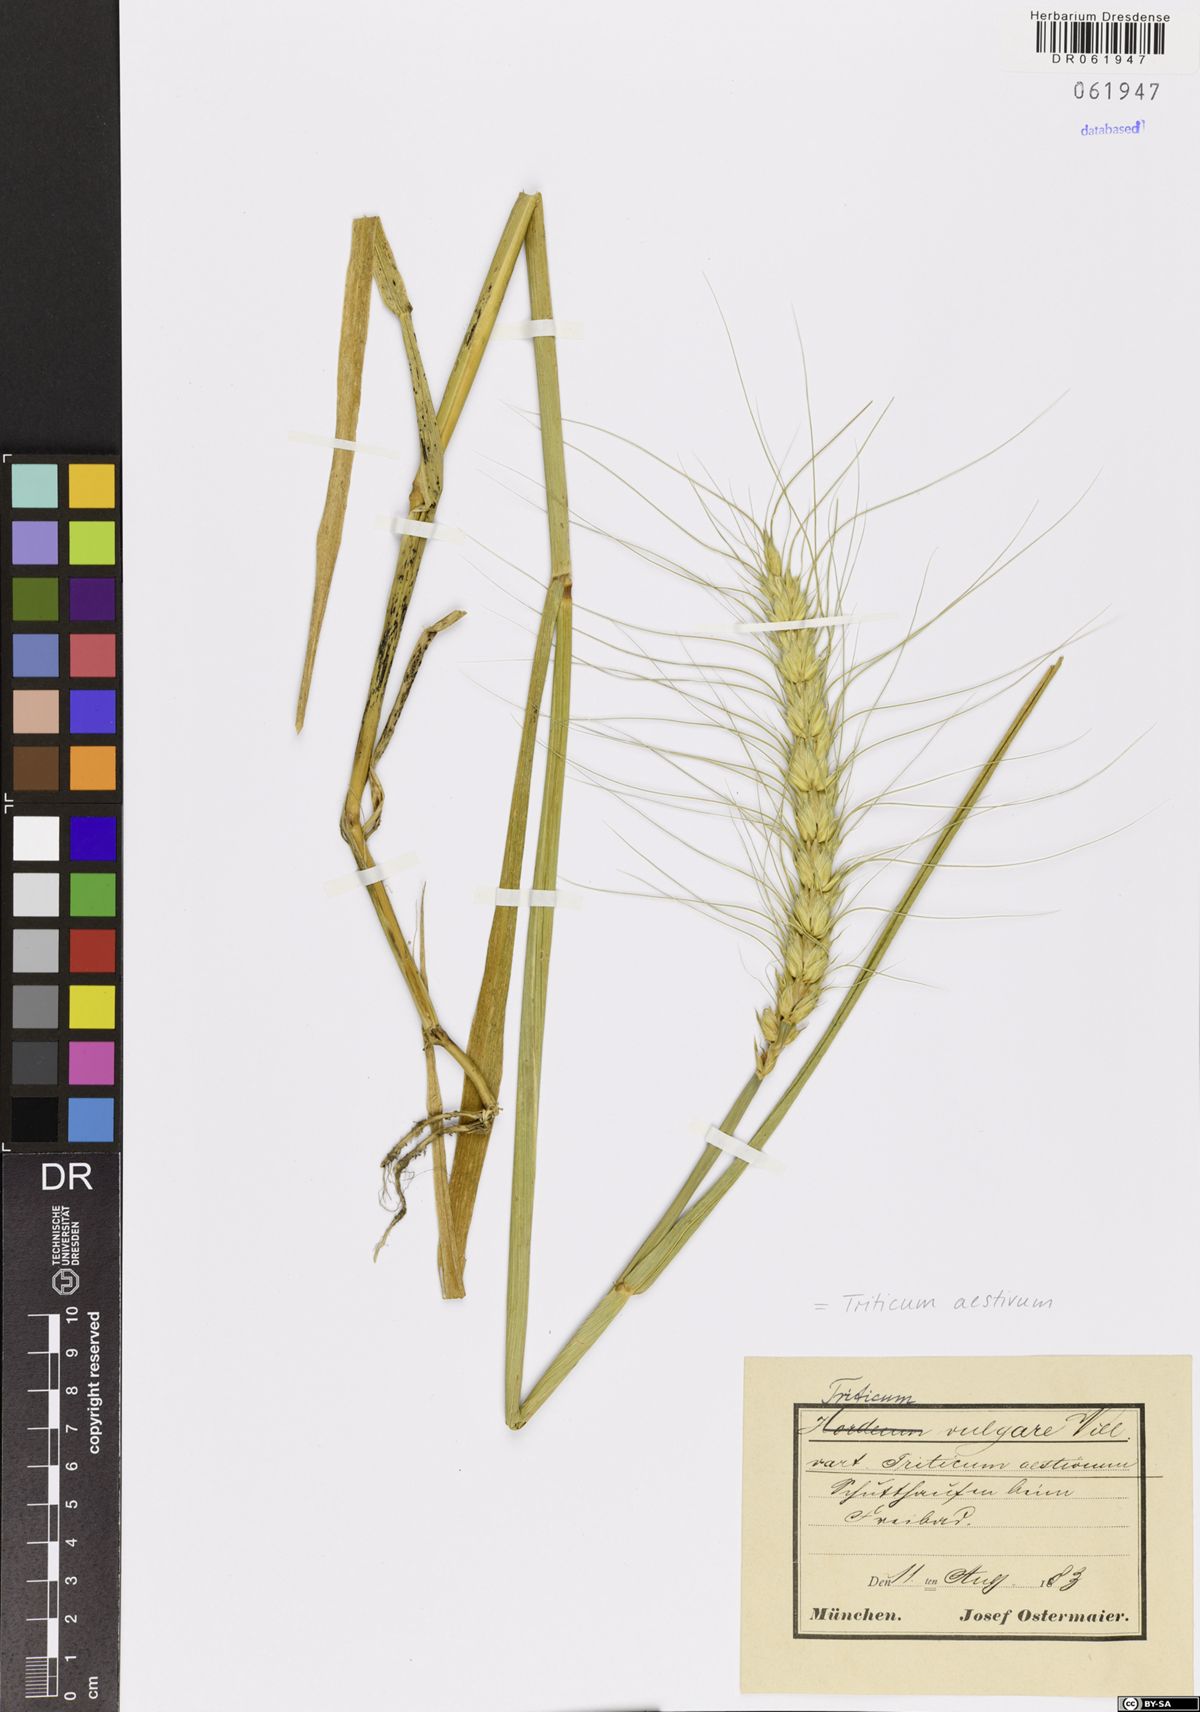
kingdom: Plantae
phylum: Tracheophyta
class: Liliopsida
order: Poales
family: Poaceae
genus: Triticum
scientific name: Triticum aestivum
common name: Common wheat
